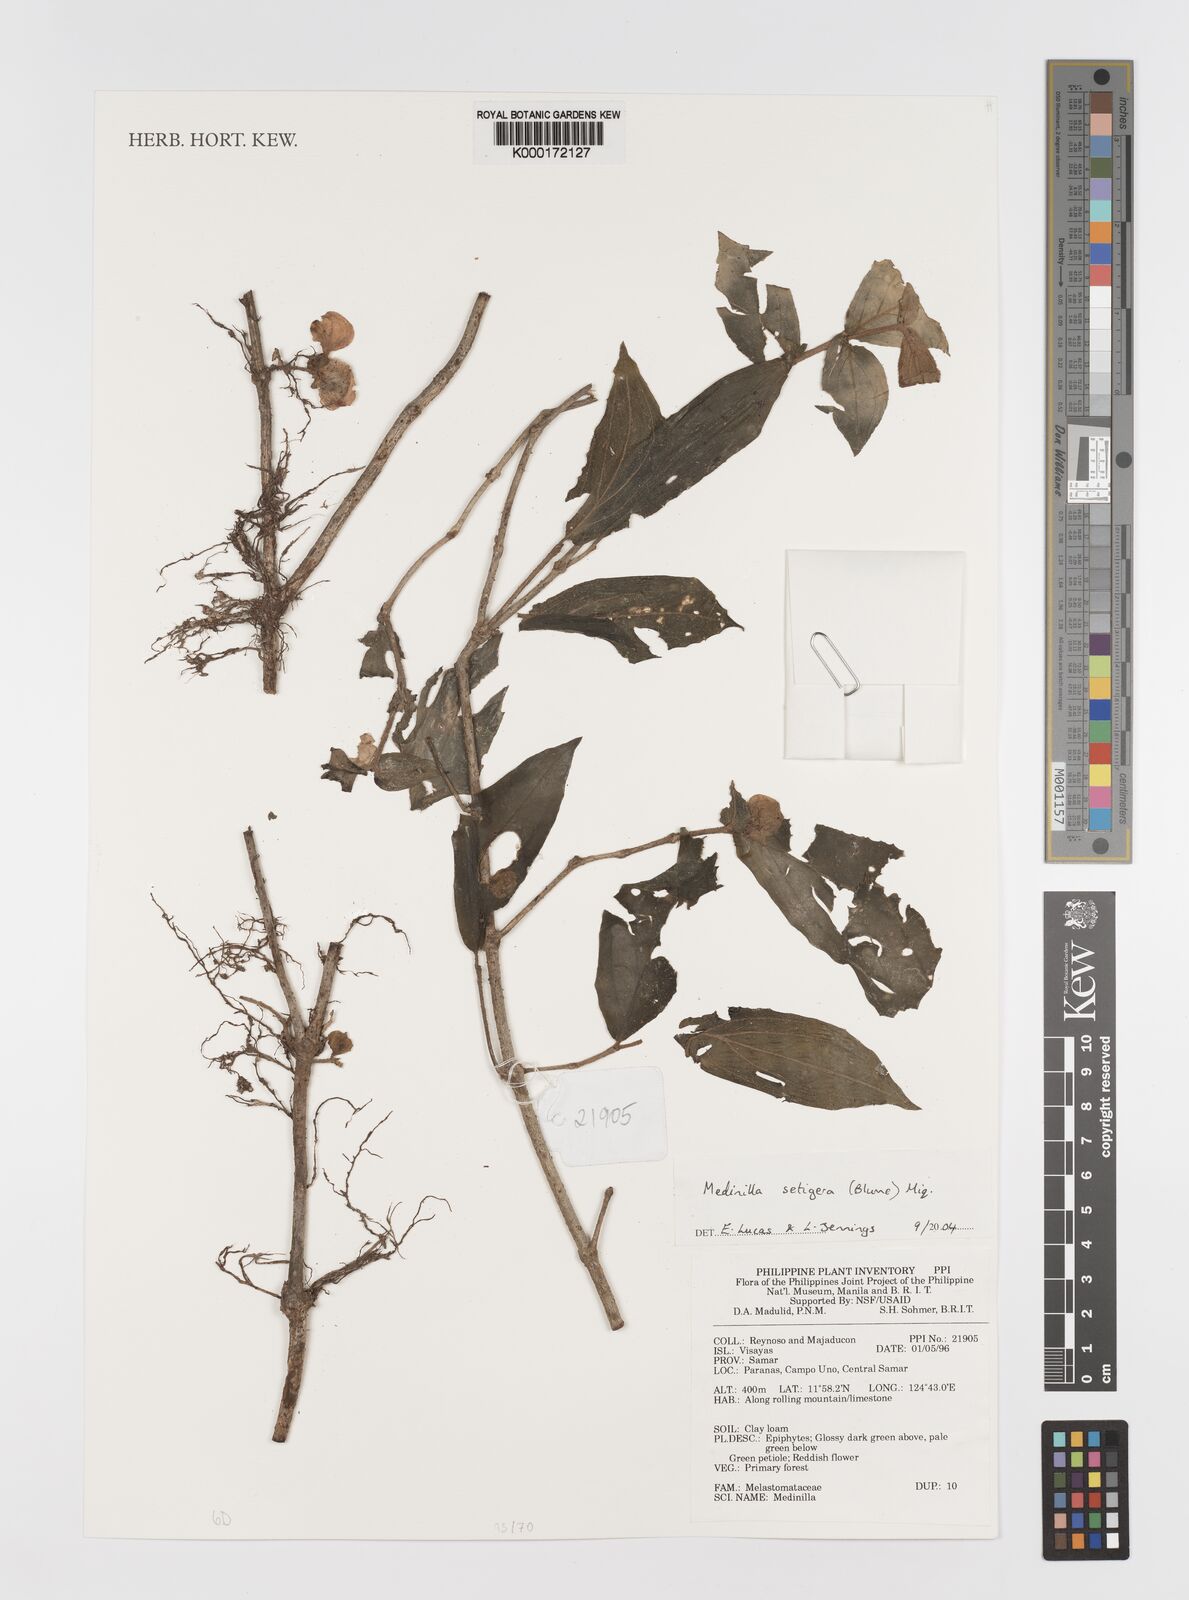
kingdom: Plantae
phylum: Tracheophyta
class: Magnoliopsida
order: Myrtales
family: Melastomataceae
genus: Medinilla
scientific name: Medinilla setigera
